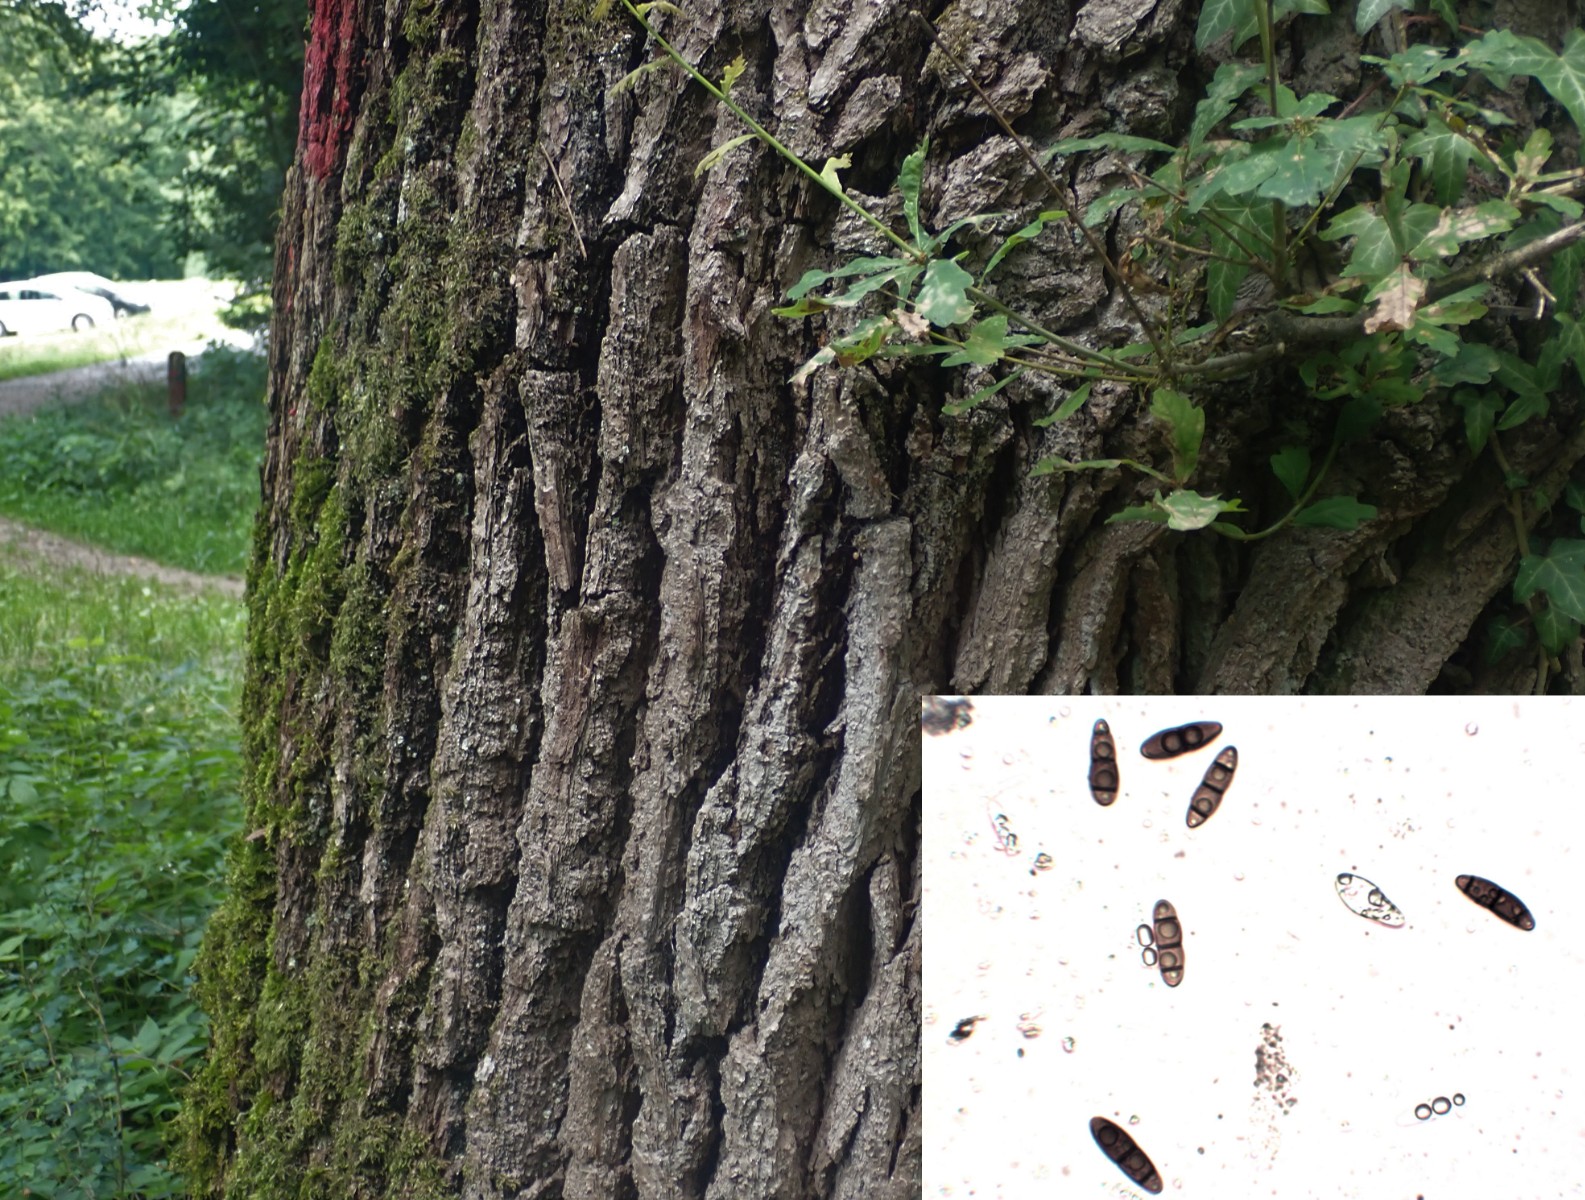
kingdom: Fungi
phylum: Ascomycota
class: Dothideomycetes
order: Hysteriales
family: Hysteriaceae
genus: Hysterium
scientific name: Hysterium acuminatum
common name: almindelig kulmund
